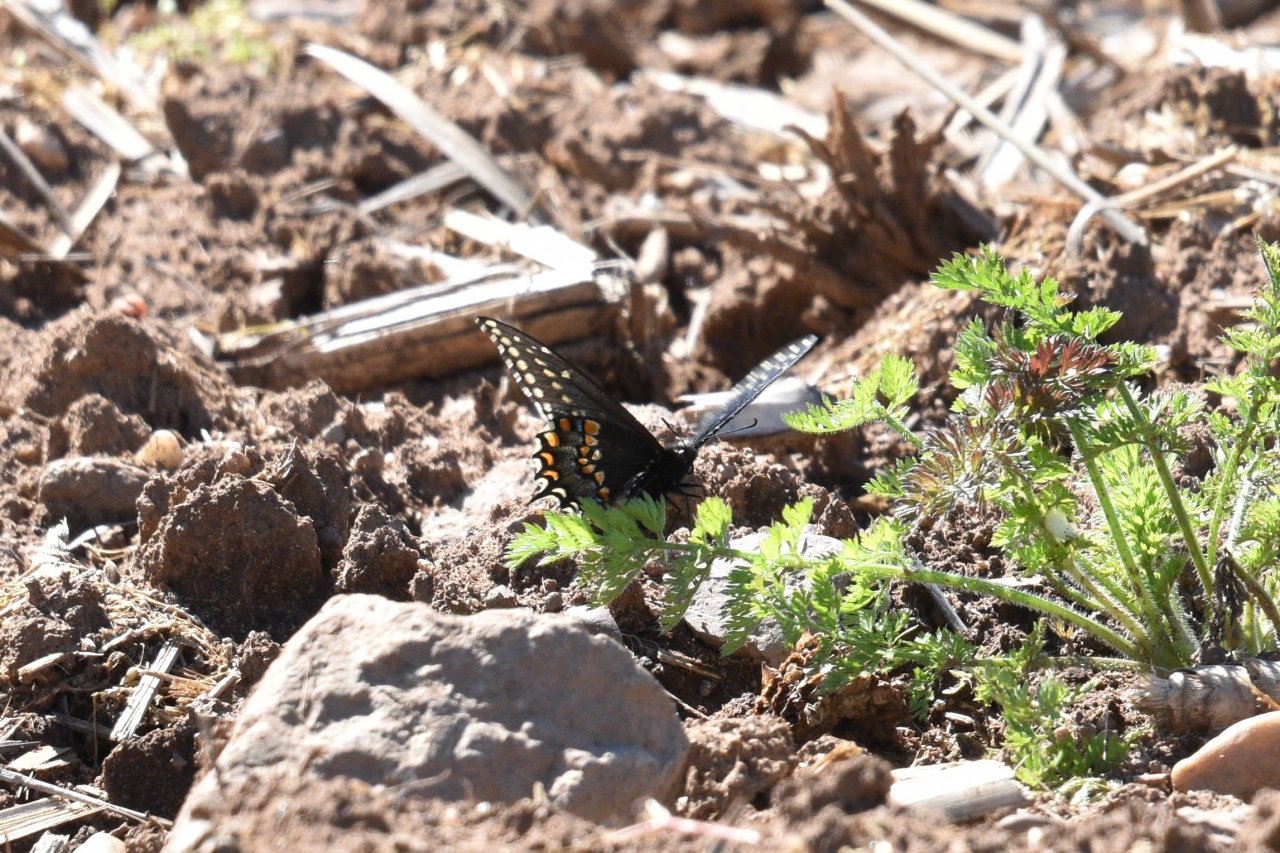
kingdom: Animalia
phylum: Arthropoda
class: Insecta
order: Lepidoptera
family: Papilionidae
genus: Papilio
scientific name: Papilio polyxenes
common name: Black Swallowtail
